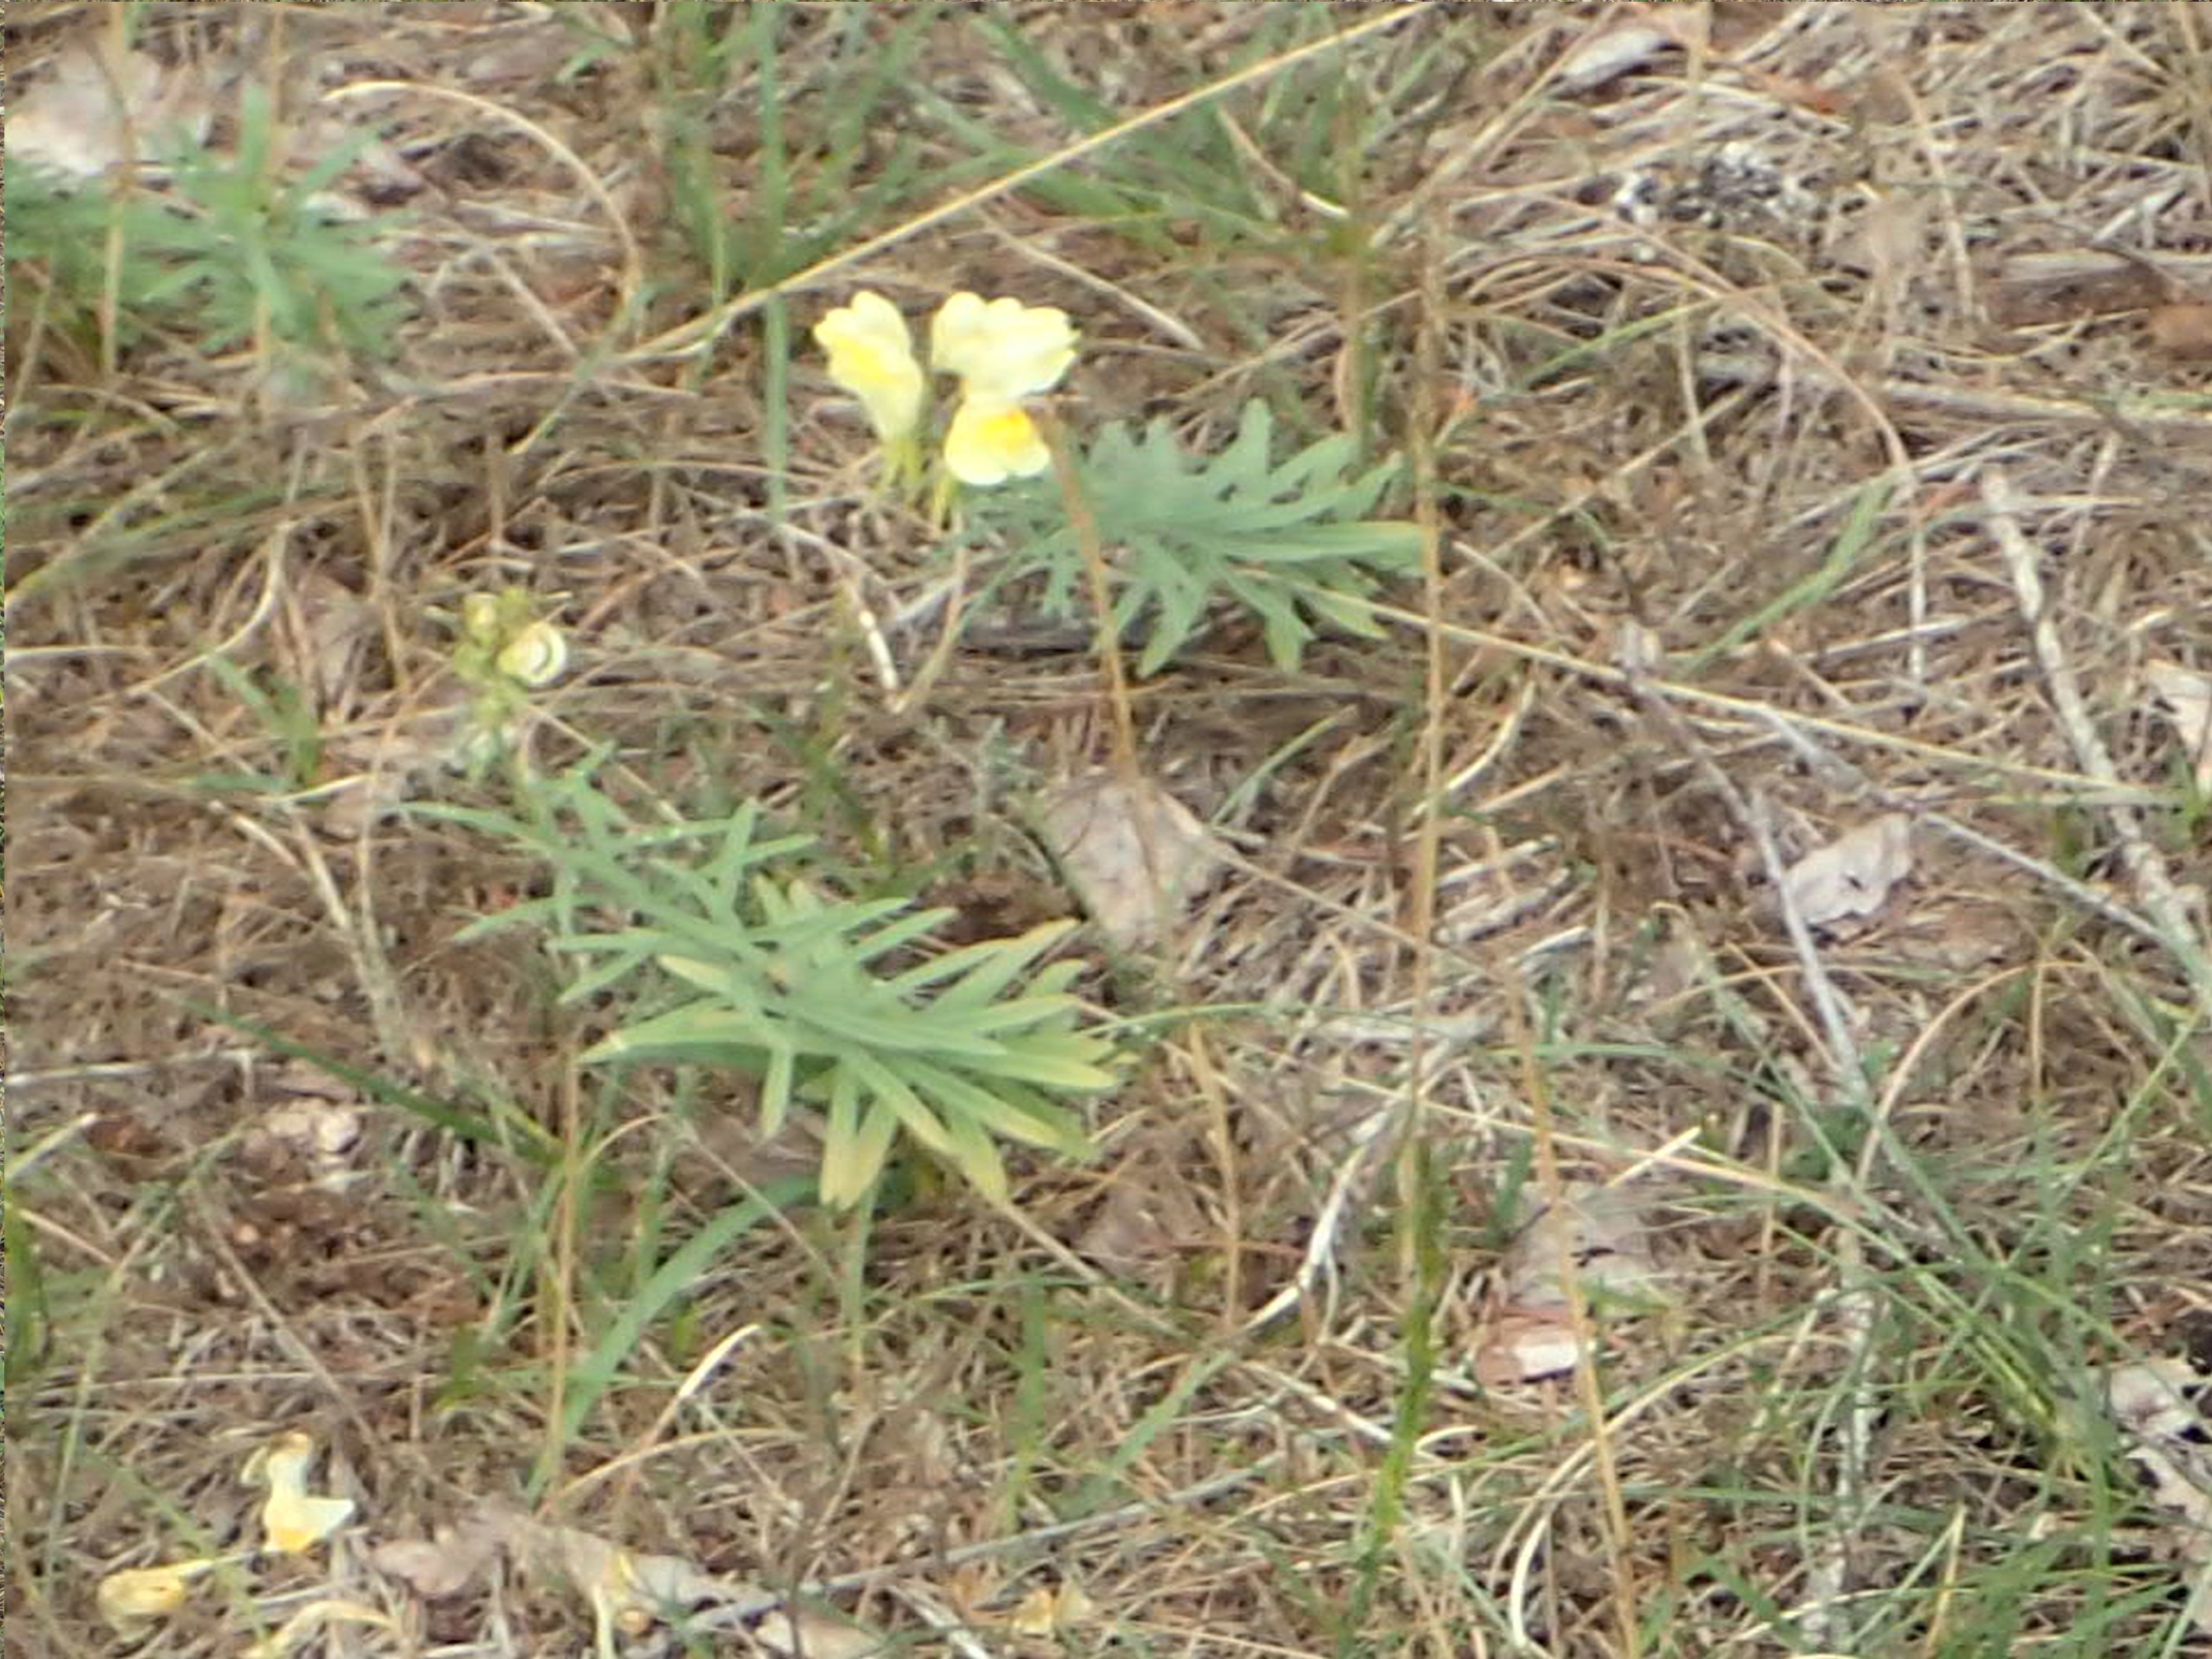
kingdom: Plantae
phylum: Tracheophyta
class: Magnoliopsida
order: Lamiales
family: Plantaginaceae
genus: Linaria
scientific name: Linaria vulgaris
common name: Almindelig torskemund
